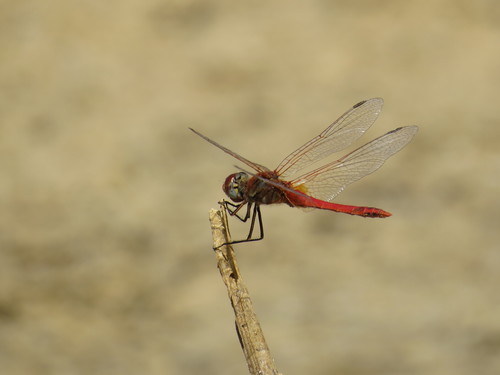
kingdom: Animalia
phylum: Arthropoda
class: Insecta
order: Odonata
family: Libellulidae
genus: Sympetrum
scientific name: Sympetrum fonscolombii
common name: Red-veined darter
